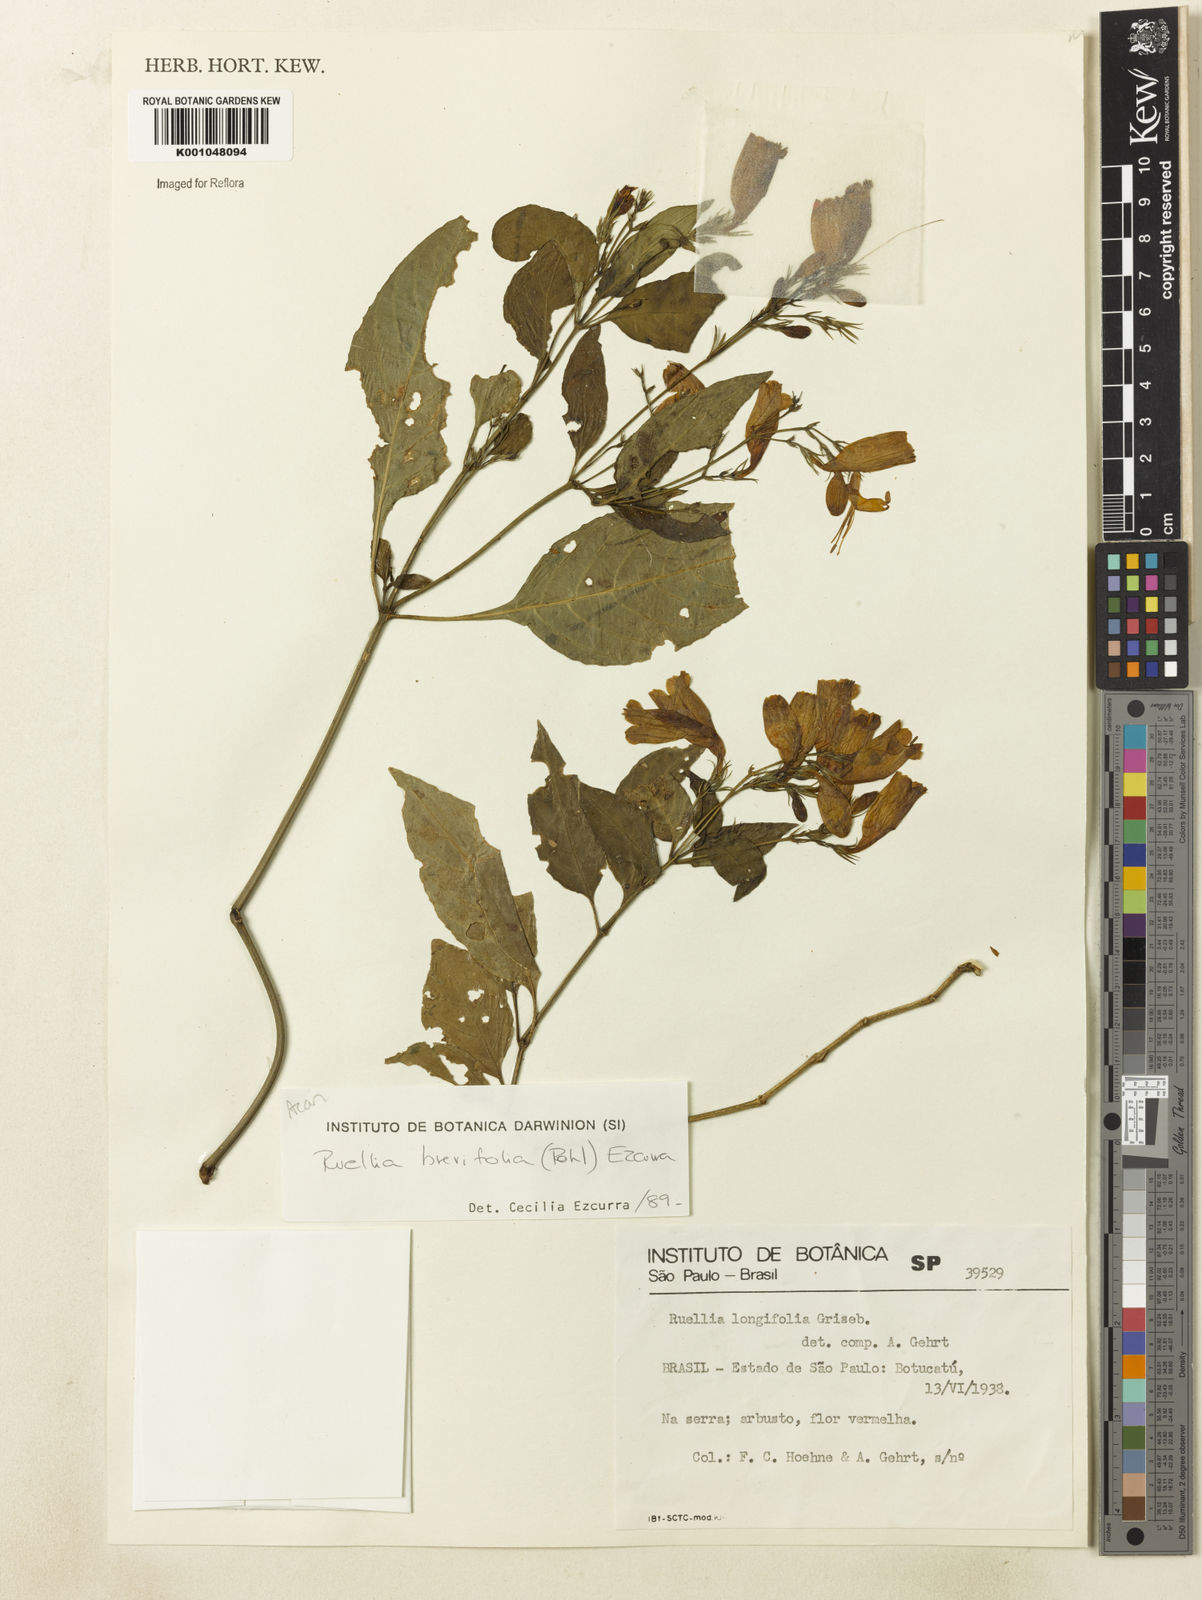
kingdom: Plantae
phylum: Tracheophyta
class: Magnoliopsida
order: Lamiales
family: Acanthaceae
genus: Ruellia
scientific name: Ruellia brevifolia
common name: Tropical wild petunia
